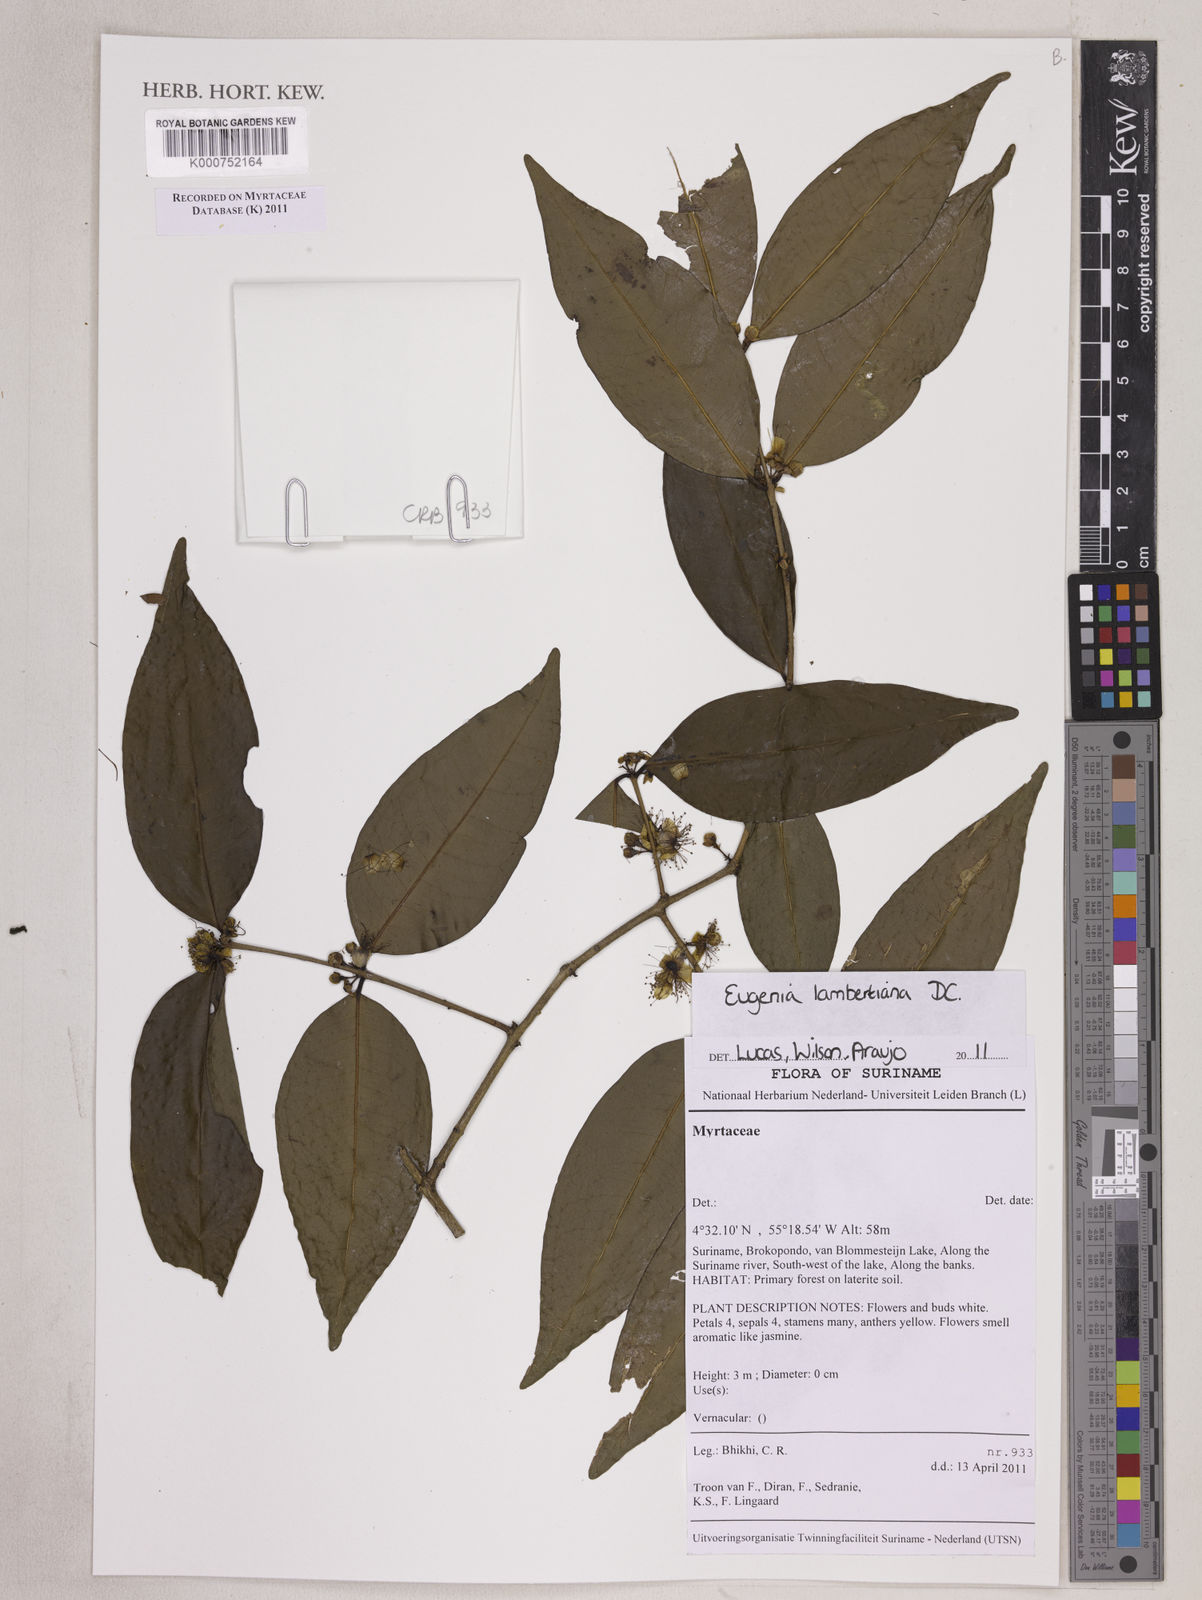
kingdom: Plantae
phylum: Tracheophyta
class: Magnoliopsida
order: Myrtales
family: Myrtaceae
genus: Eugenia
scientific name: Eugenia lambertiana
